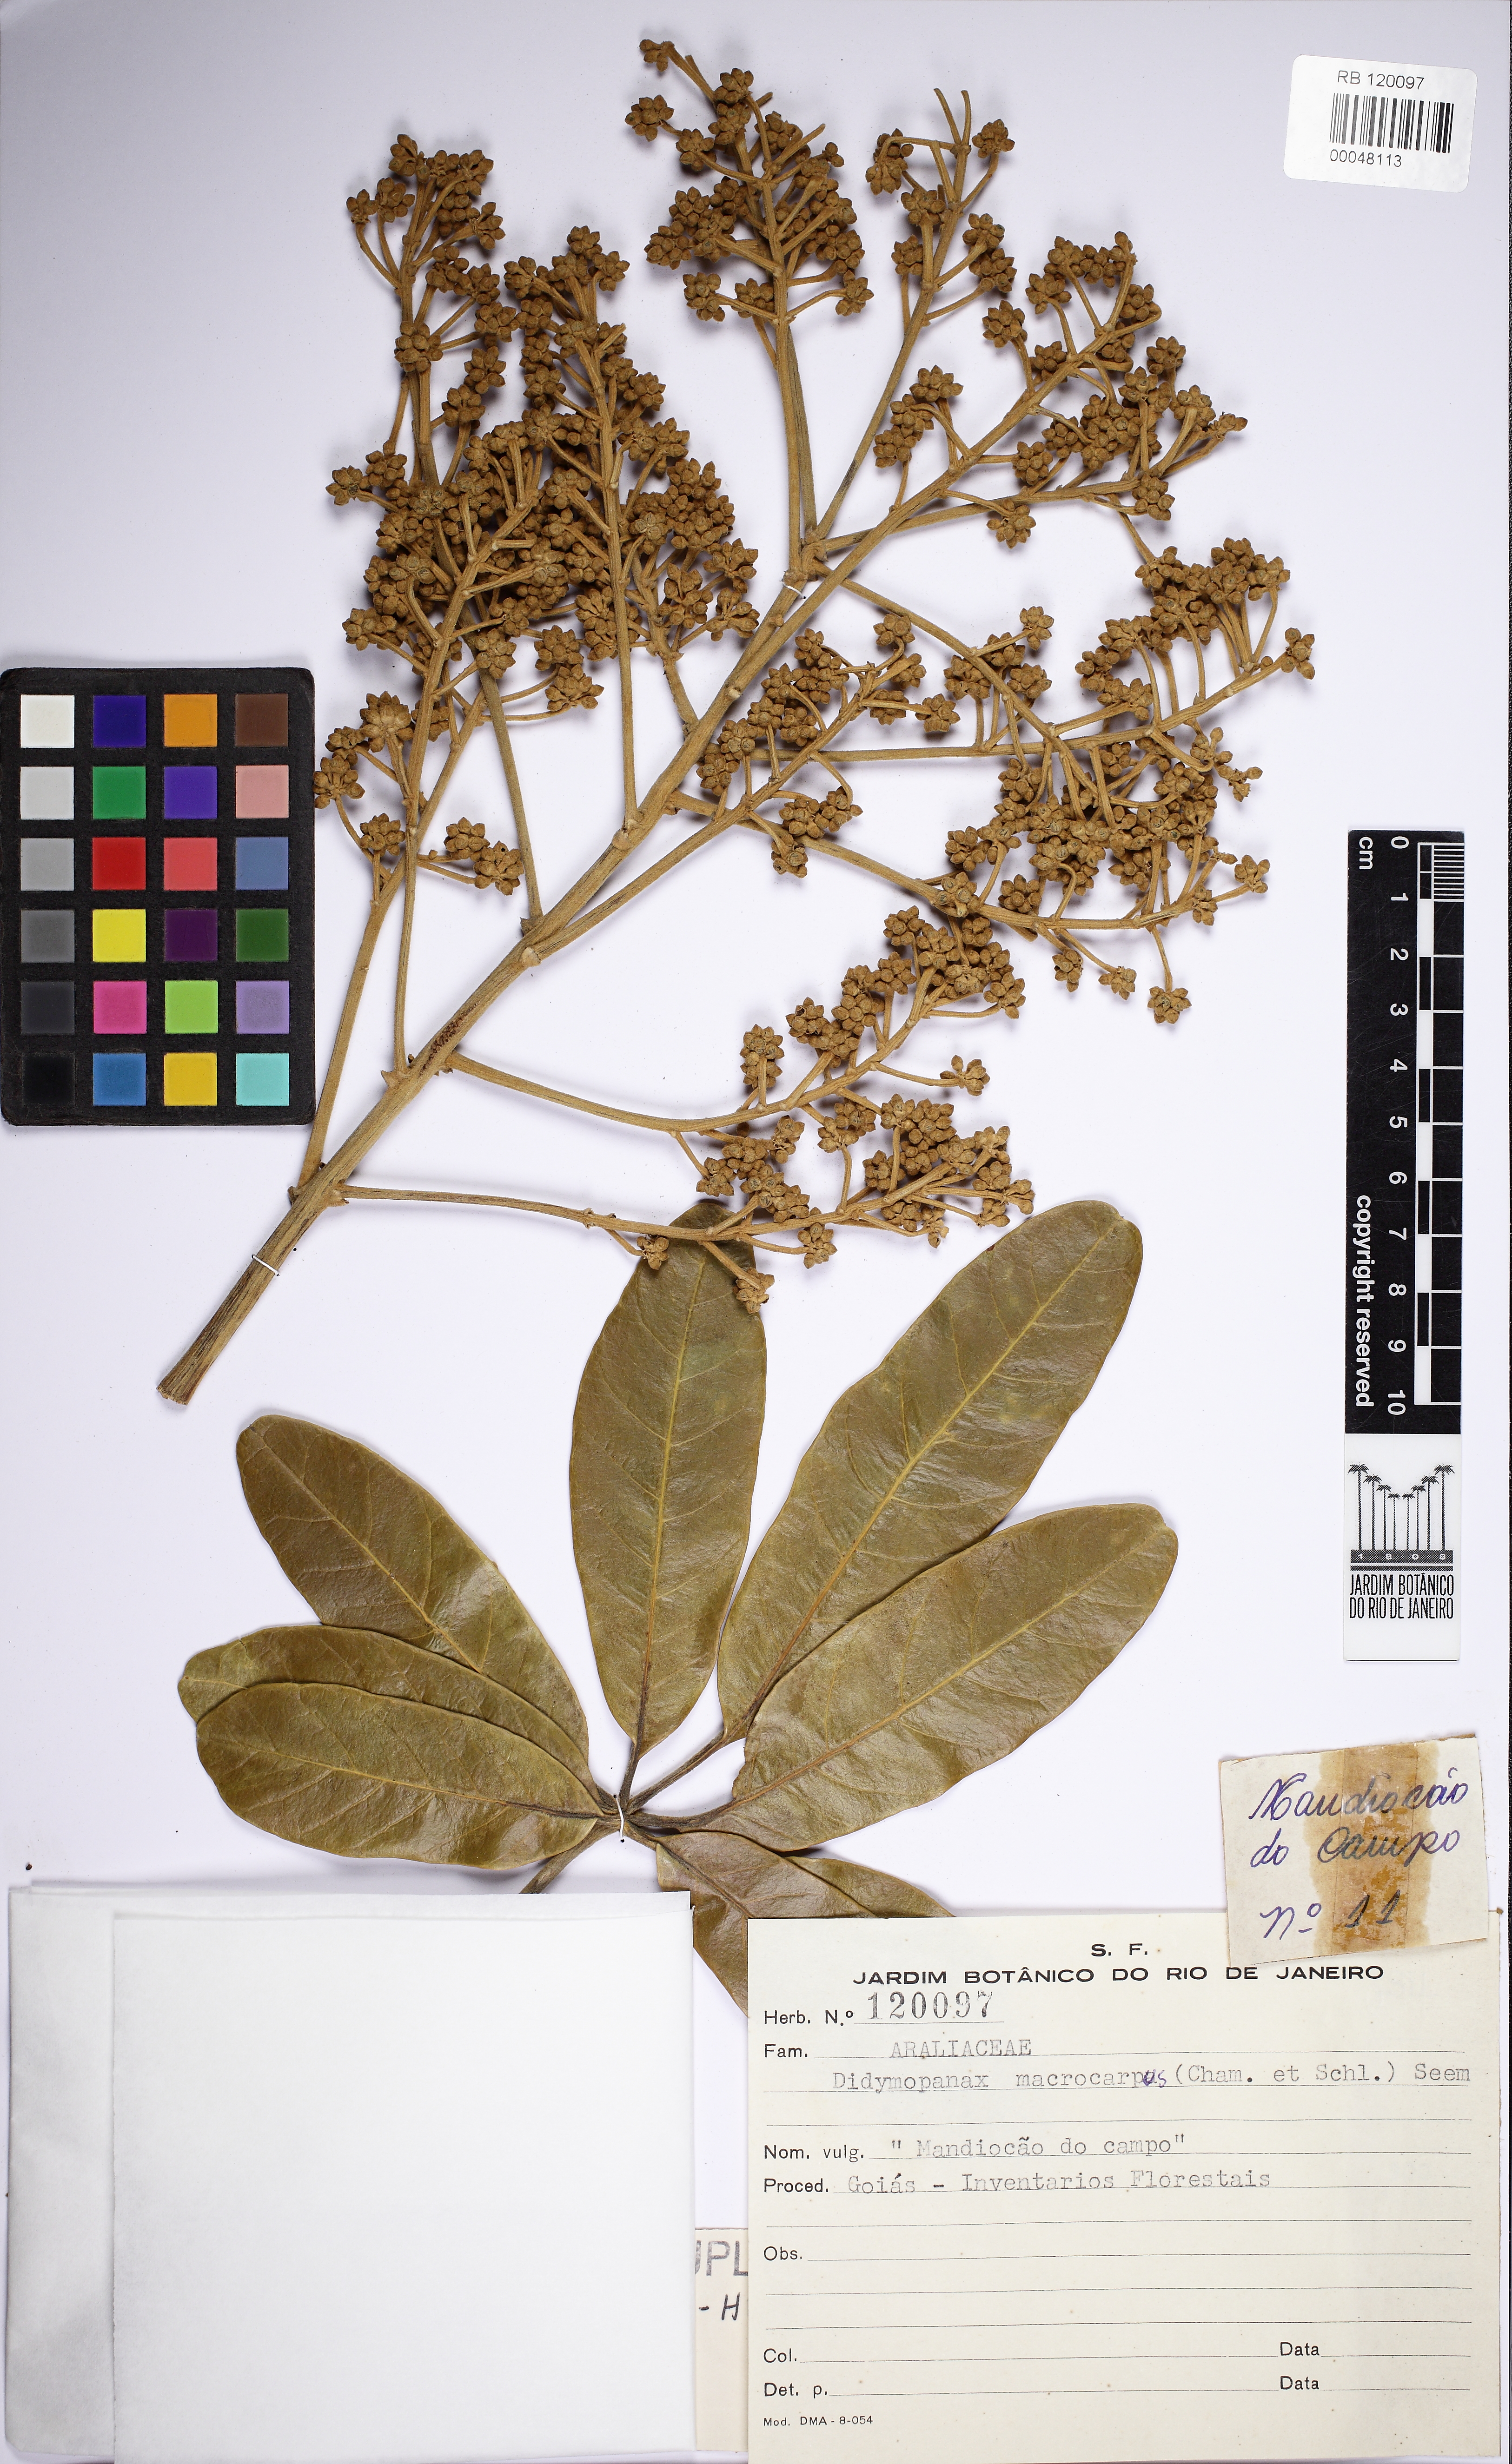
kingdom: Plantae
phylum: Tracheophyta
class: Magnoliopsida
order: Apiales
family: Araliaceae
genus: Didymopanax
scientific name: Didymopanax macrocarpus
